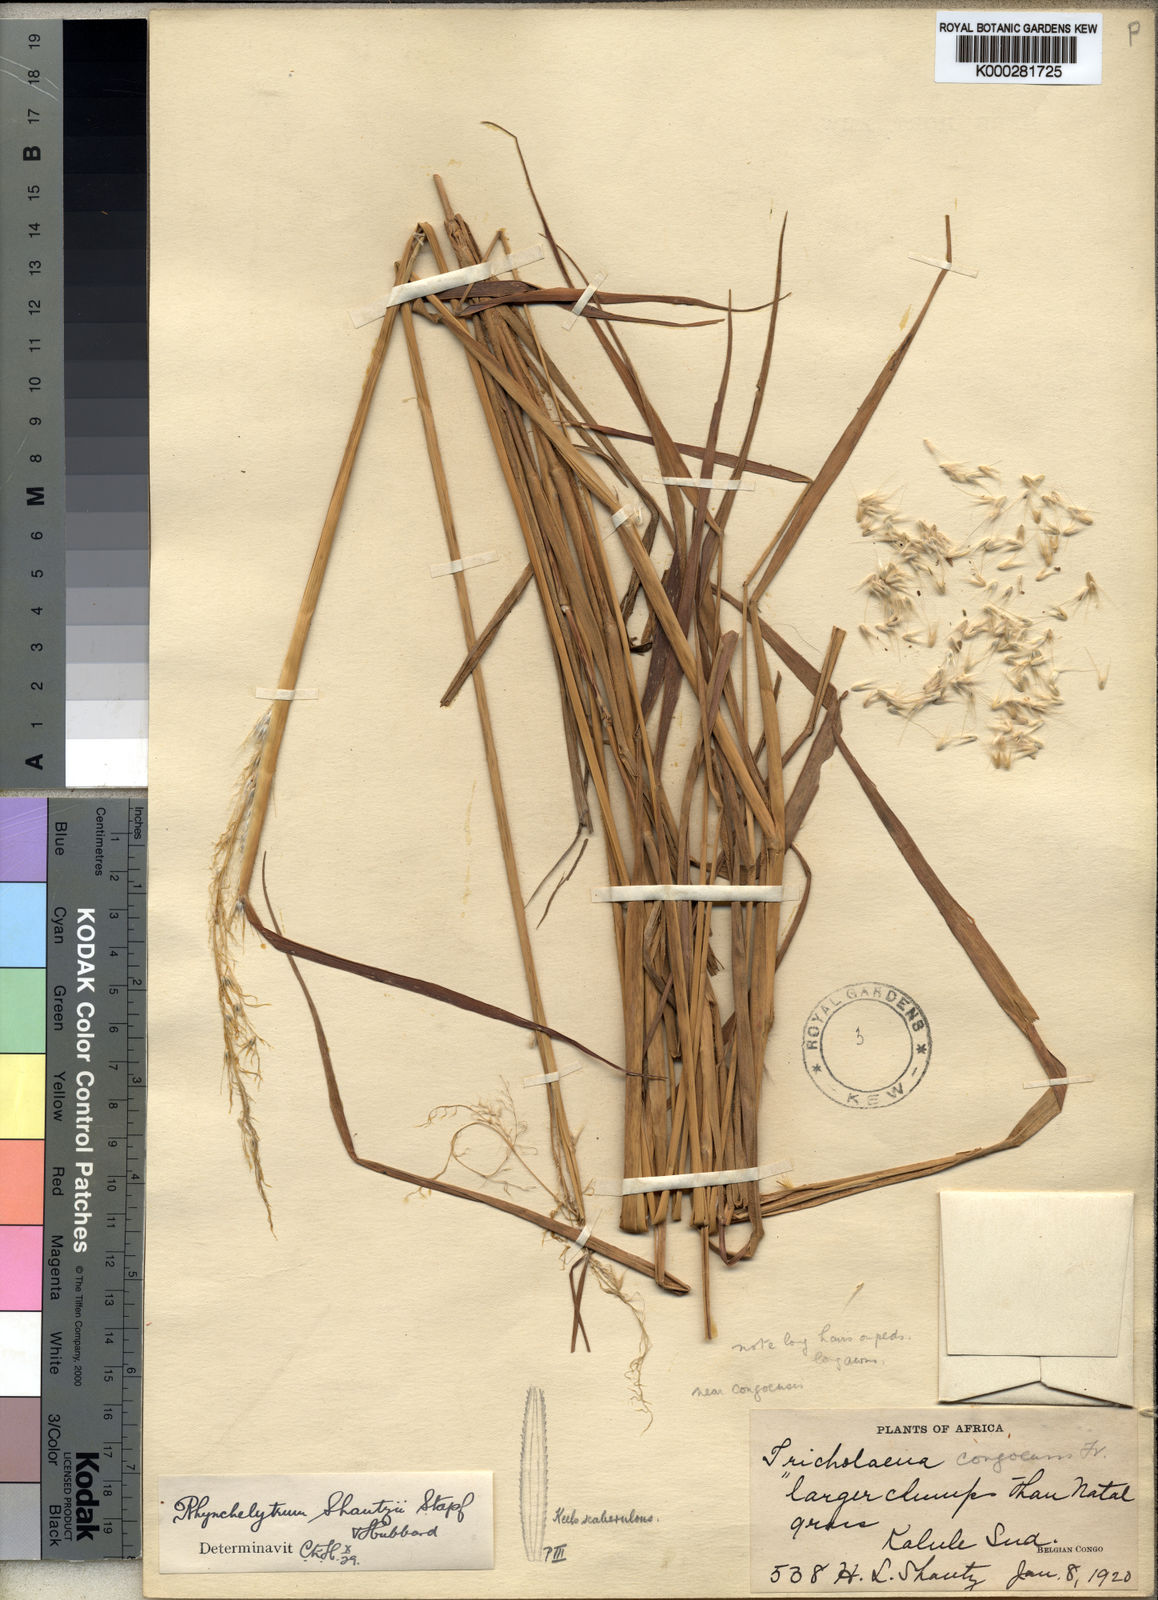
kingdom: Plantae
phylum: Tracheophyta
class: Liliopsida
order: Poales
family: Poaceae
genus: Melinis
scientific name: Melinis ambigua
